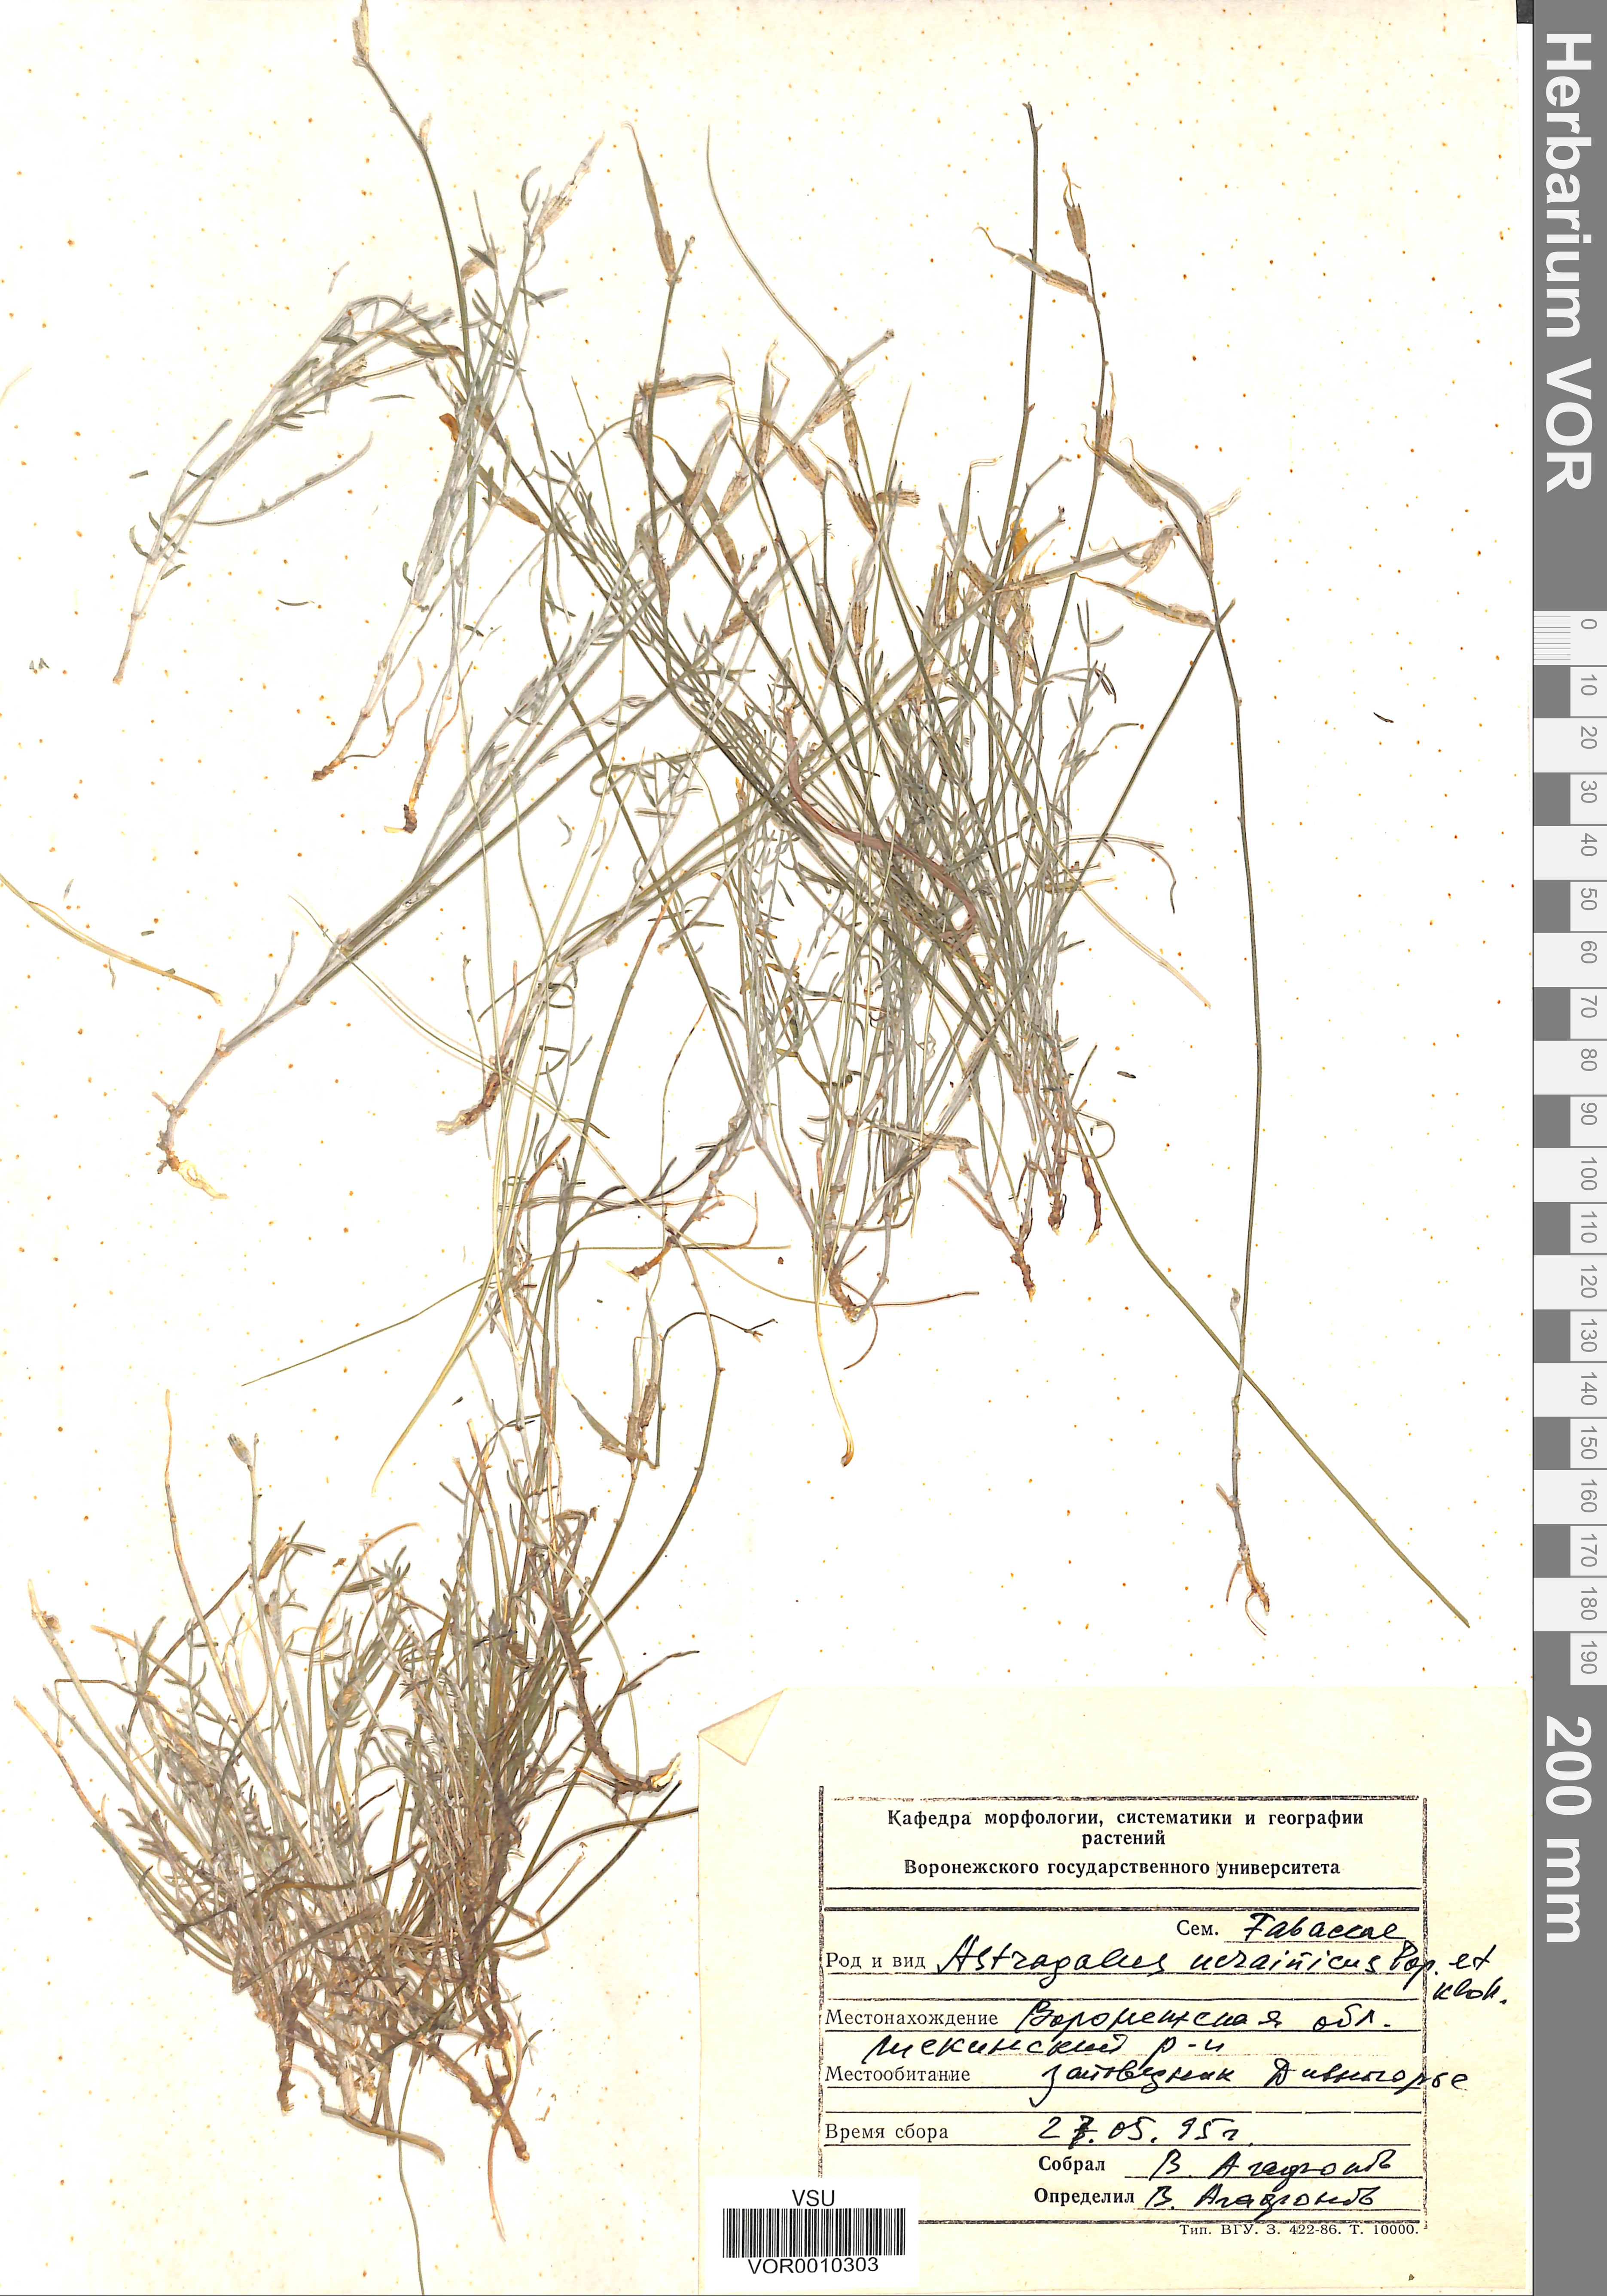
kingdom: Plantae
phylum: Tracheophyta
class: Magnoliopsida
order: Fabales
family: Fabaceae
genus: Astragalus
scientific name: Astragalus ucrainicus
